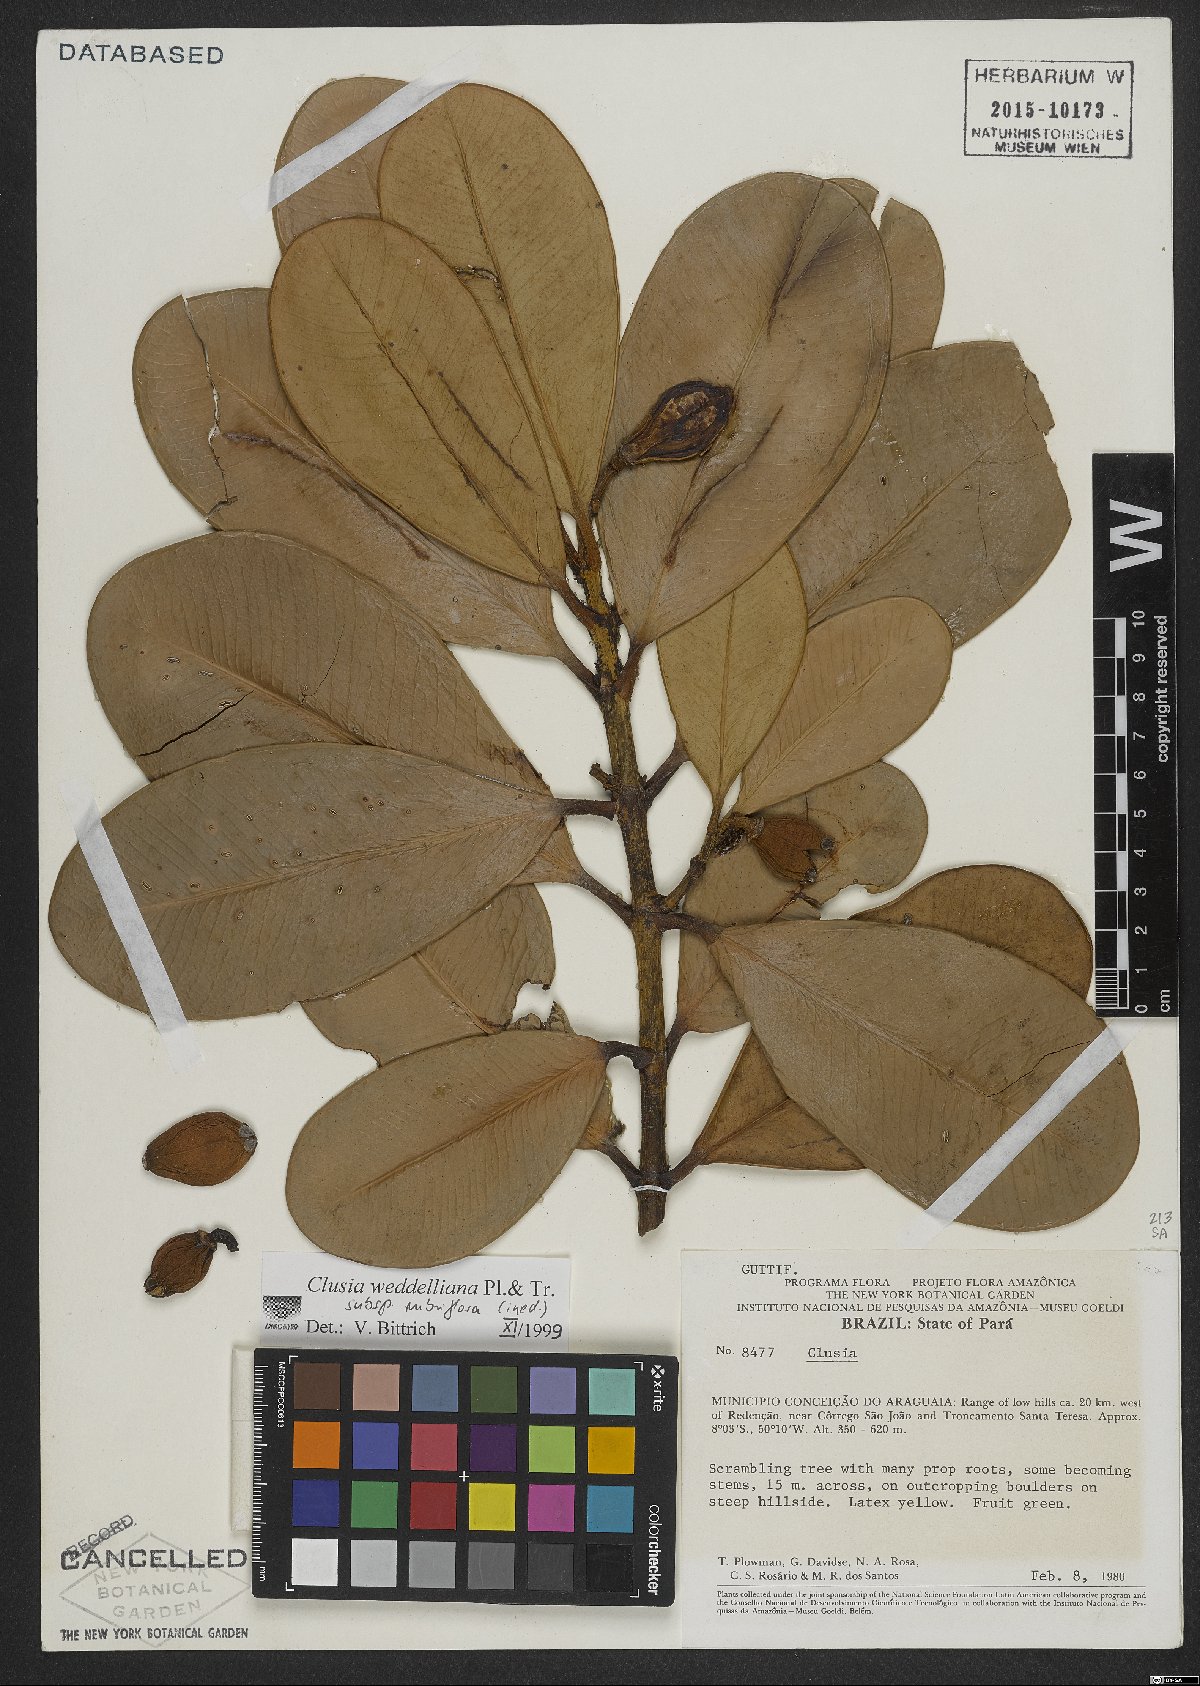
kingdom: Plantae
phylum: Tracheophyta
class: Magnoliopsida
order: Malpighiales
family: Clusiaceae
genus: Clusia
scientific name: Clusia weddelliana
